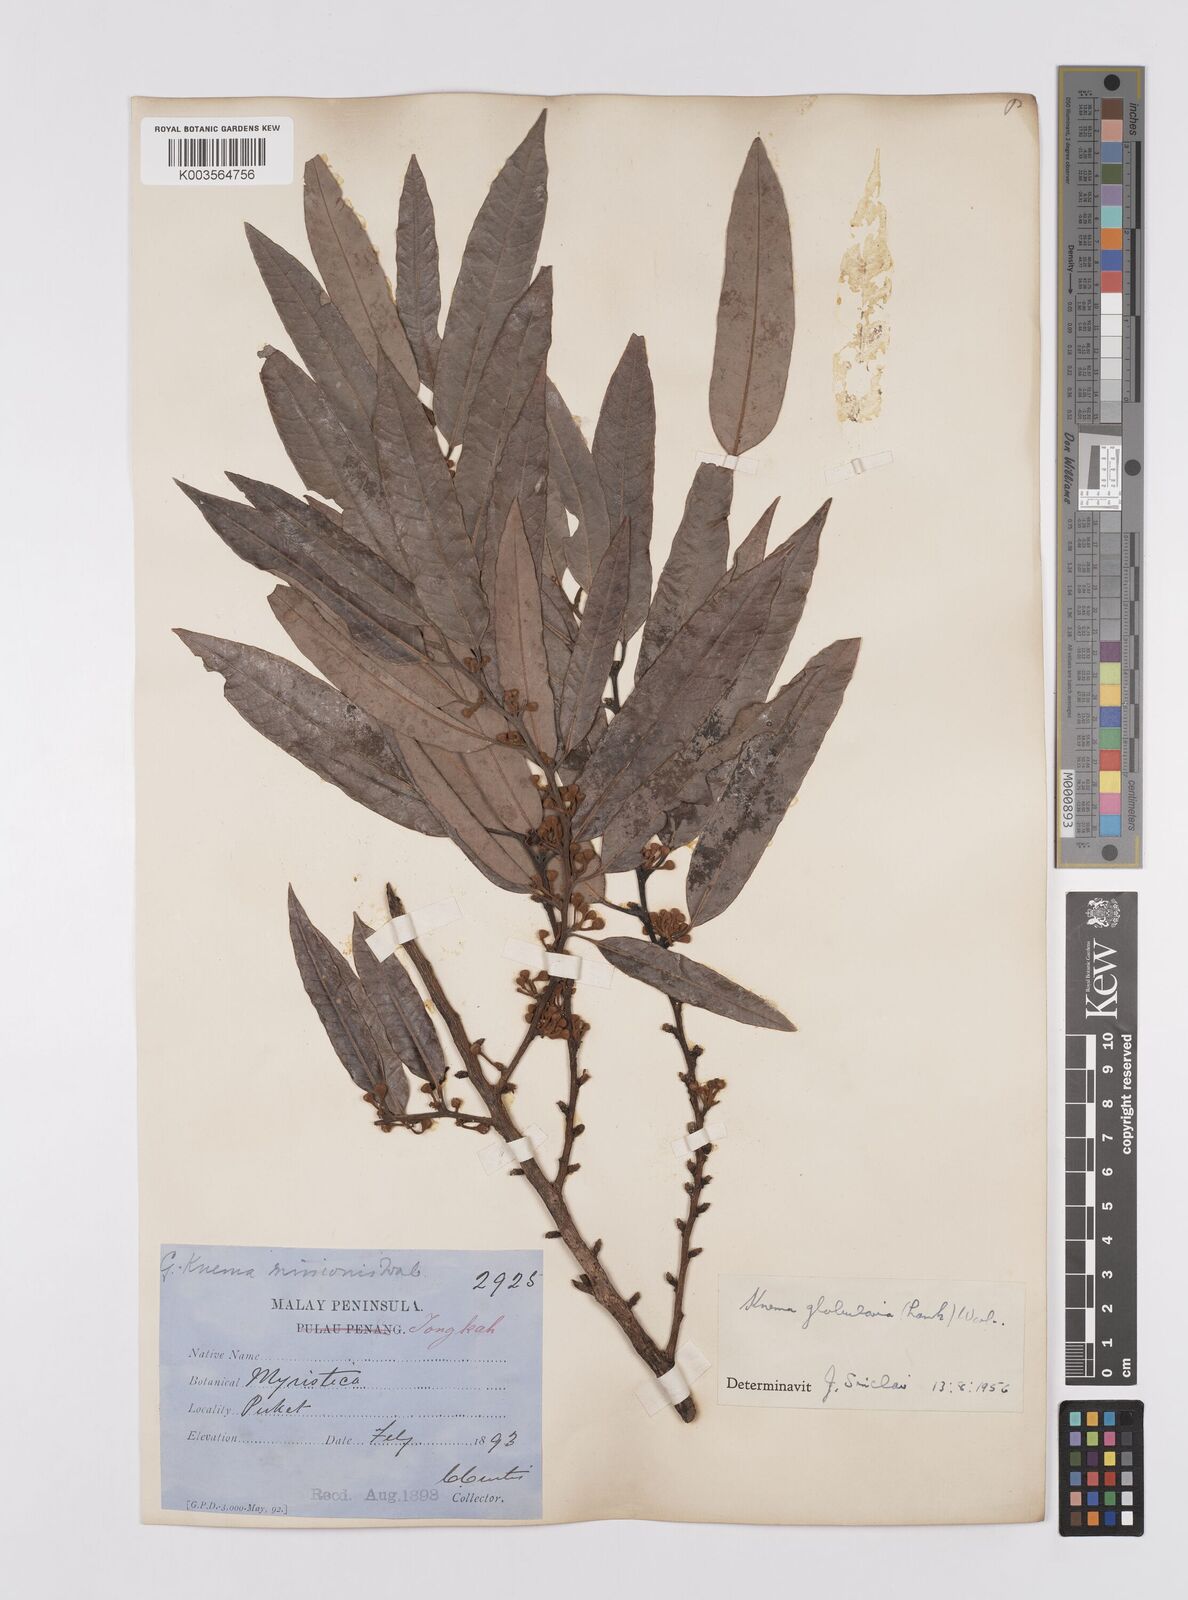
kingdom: Plantae
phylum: Tracheophyta
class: Magnoliopsida
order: Magnoliales
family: Myristicaceae
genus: Knema
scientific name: Knema globularia
